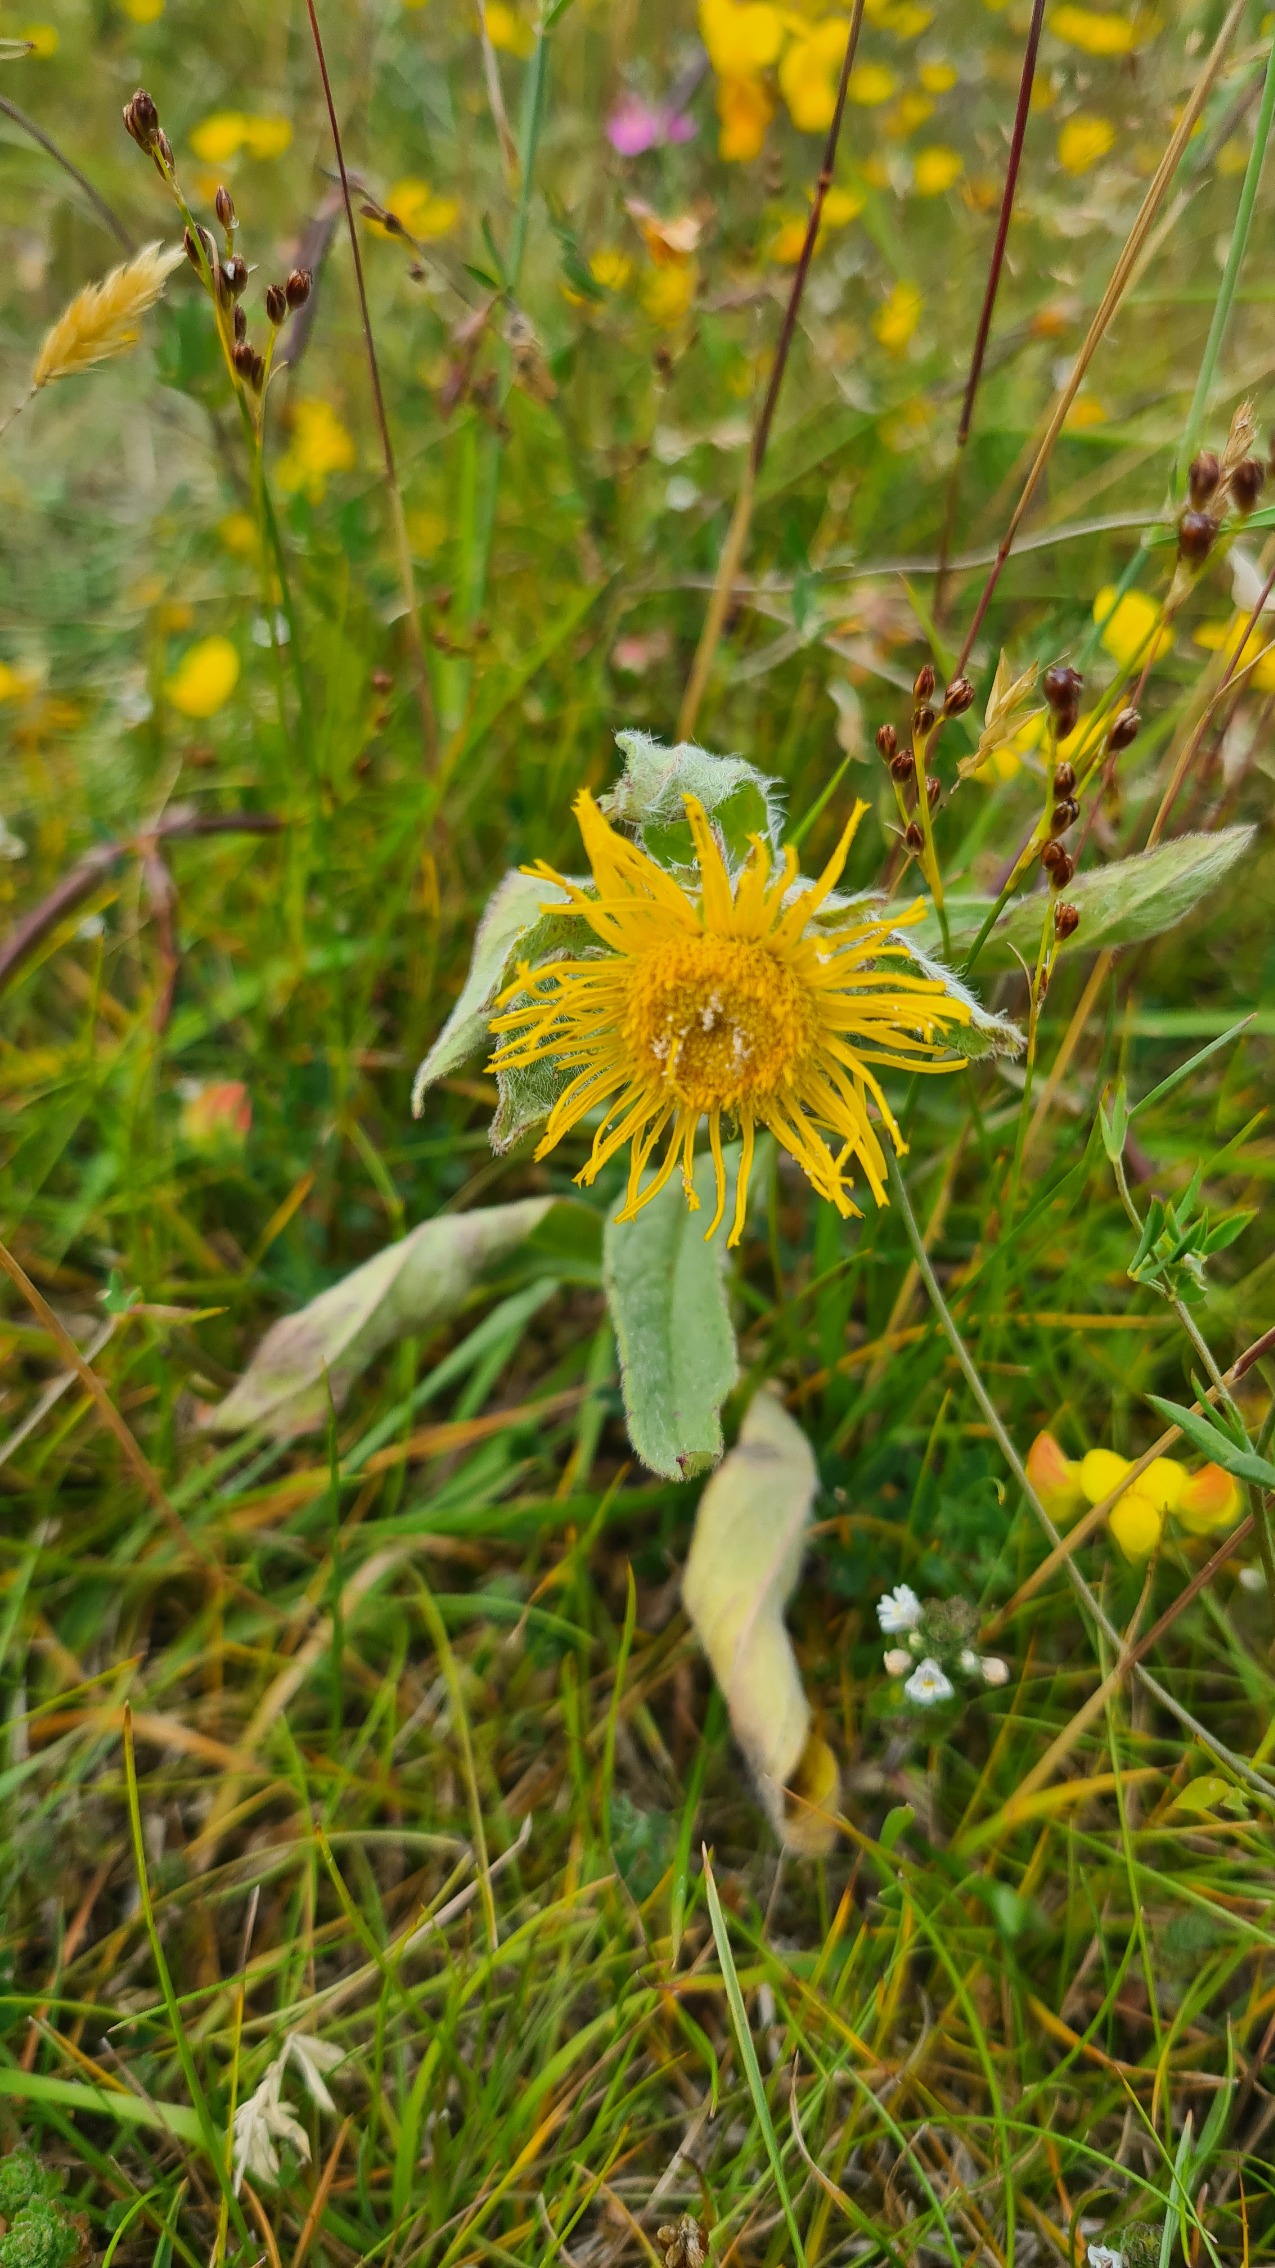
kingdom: Plantae
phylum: Tracheophyta
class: Magnoliopsida
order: Asterales
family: Asteraceae
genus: Pentanema
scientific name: Pentanema britannicum
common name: Soløje-alant
